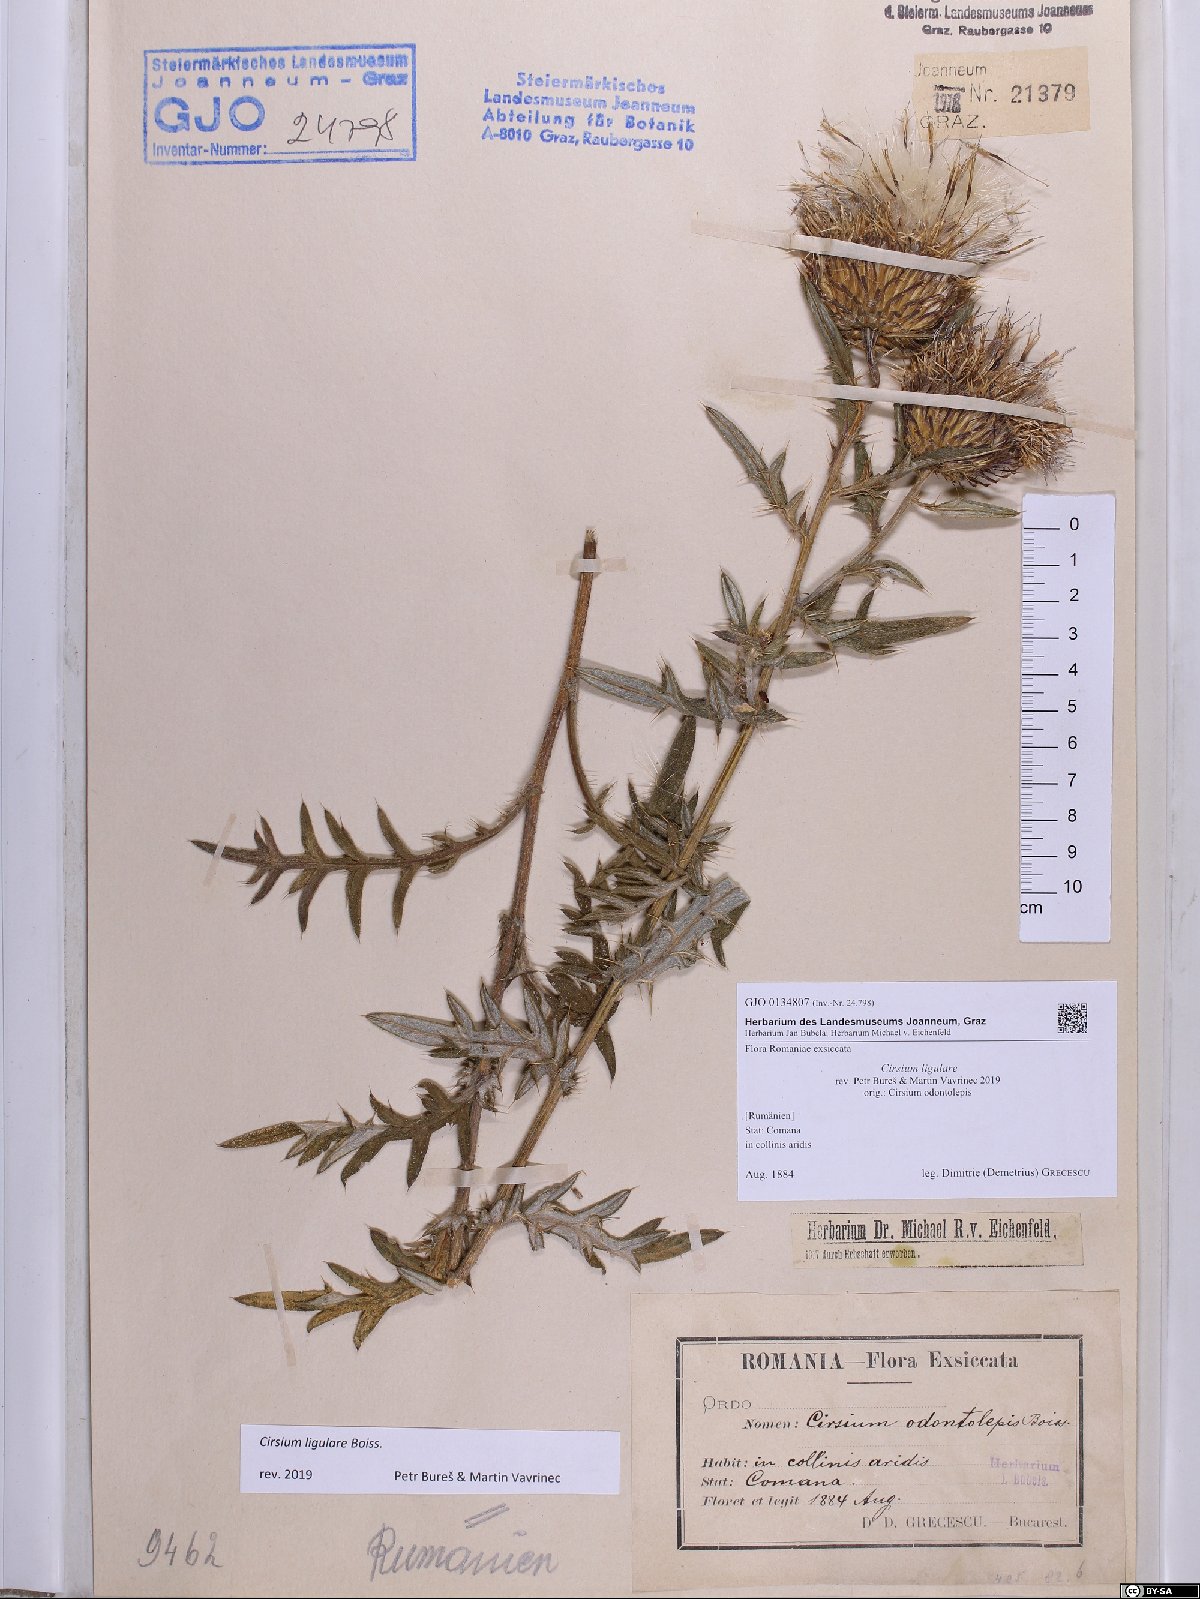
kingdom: Plantae
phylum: Tracheophyta
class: Magnoliopsida
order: Asterales
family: Asteraceae
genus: Lophiolepis
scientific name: Lophiolepis ligularis
